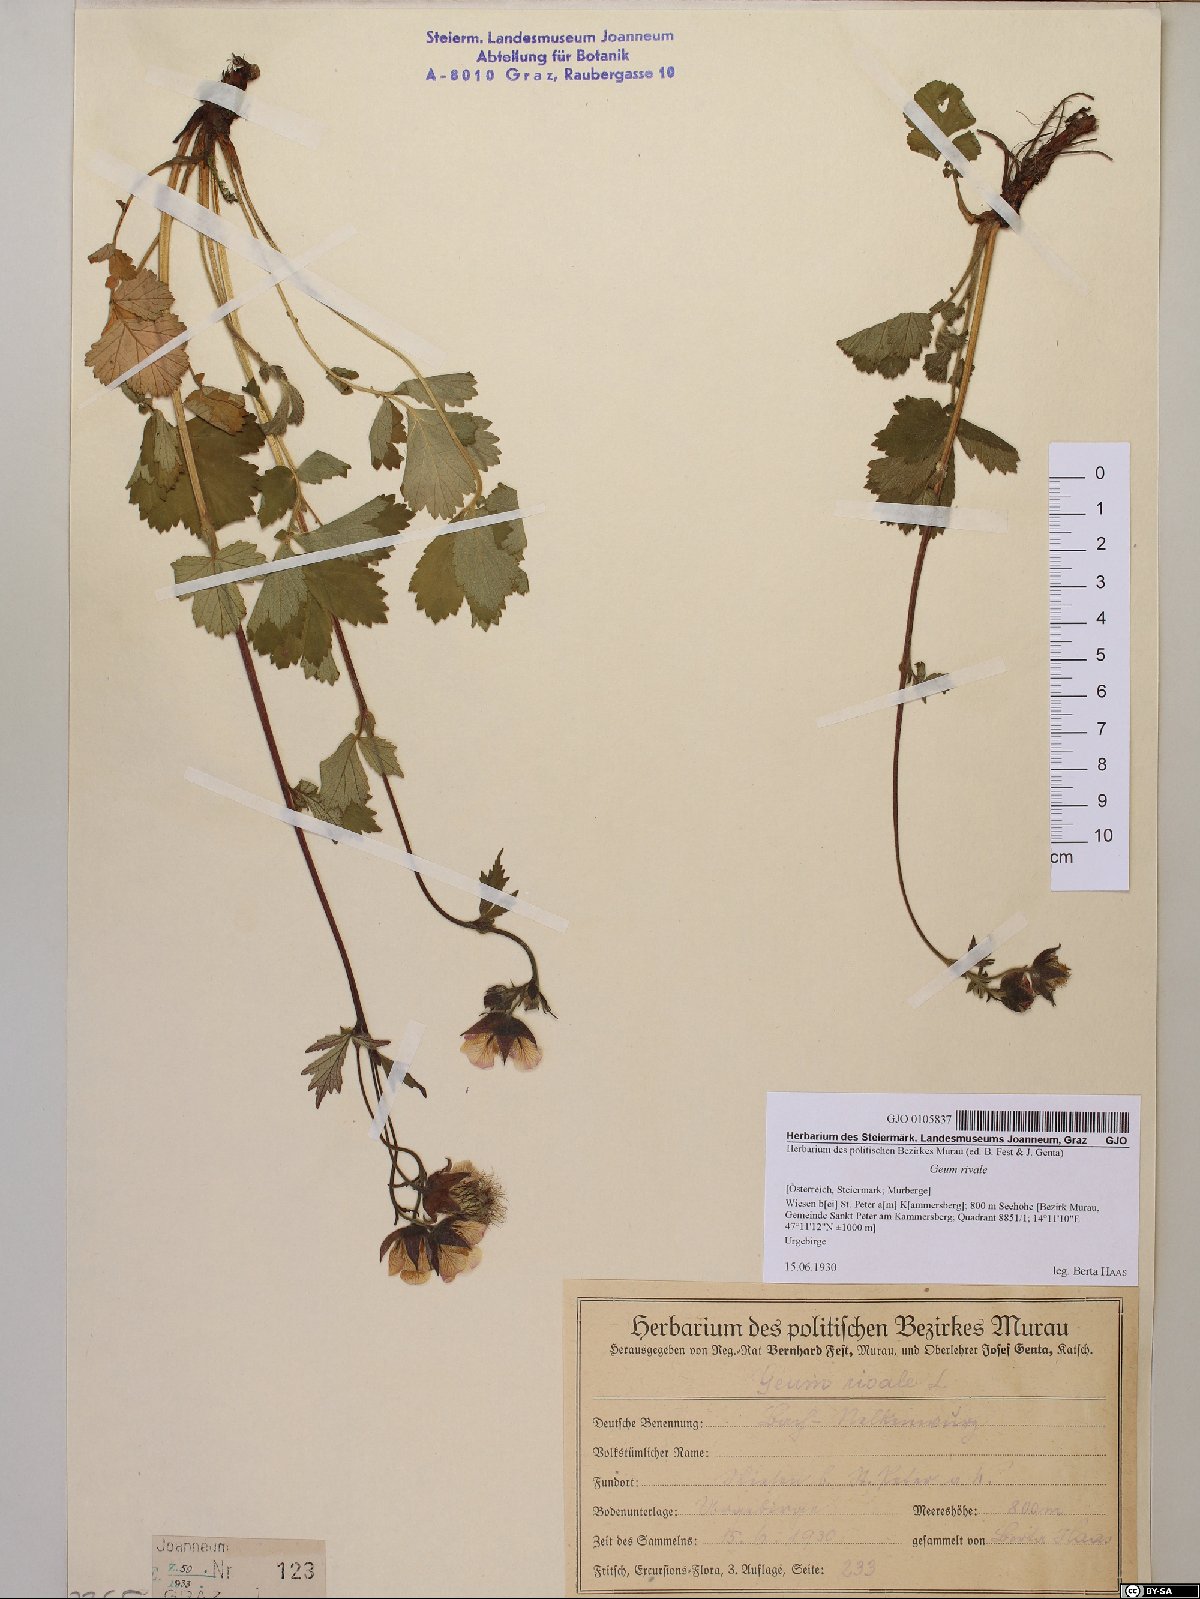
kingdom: Plantae
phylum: Tracheophyta
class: Magnoliopsida
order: Rosales
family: Rosaceae
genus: Geum
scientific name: Geum rivale
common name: Water avens
